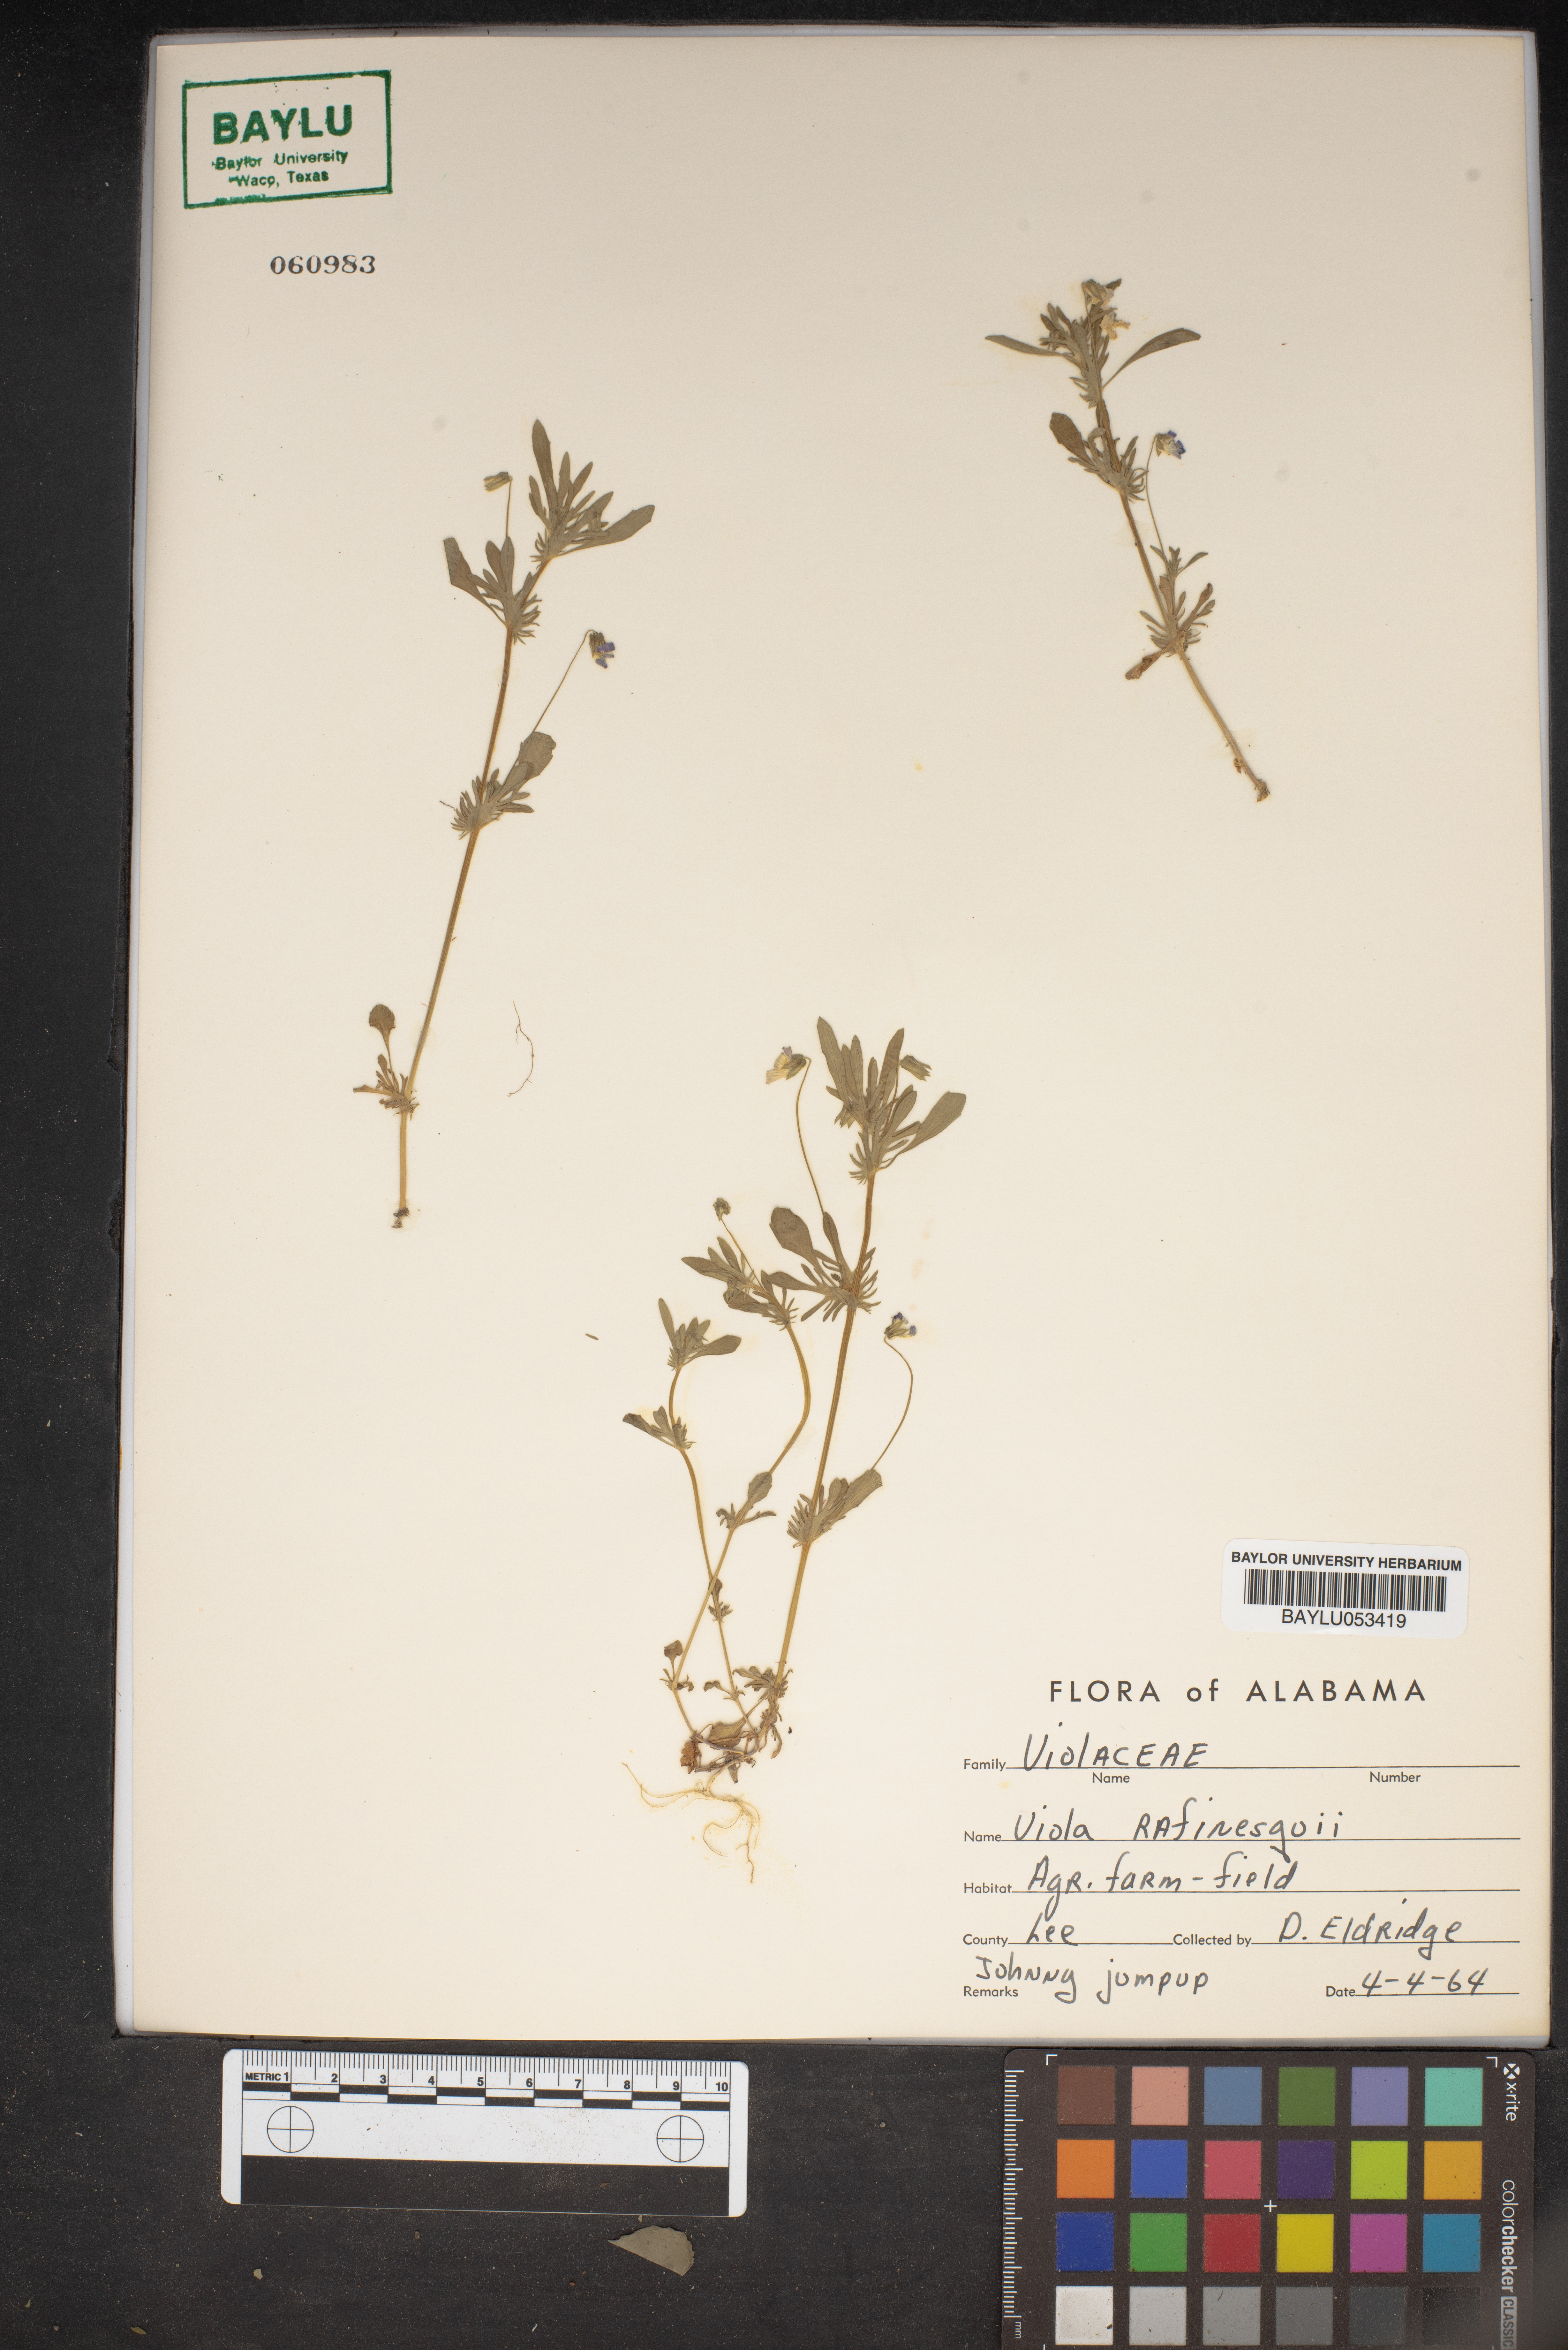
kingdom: Plantae
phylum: Tracheophyta
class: Magnoliopsida
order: Malpighiales
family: Violaceae
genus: Viola
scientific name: Viola rafinesquei
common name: American field pansy
